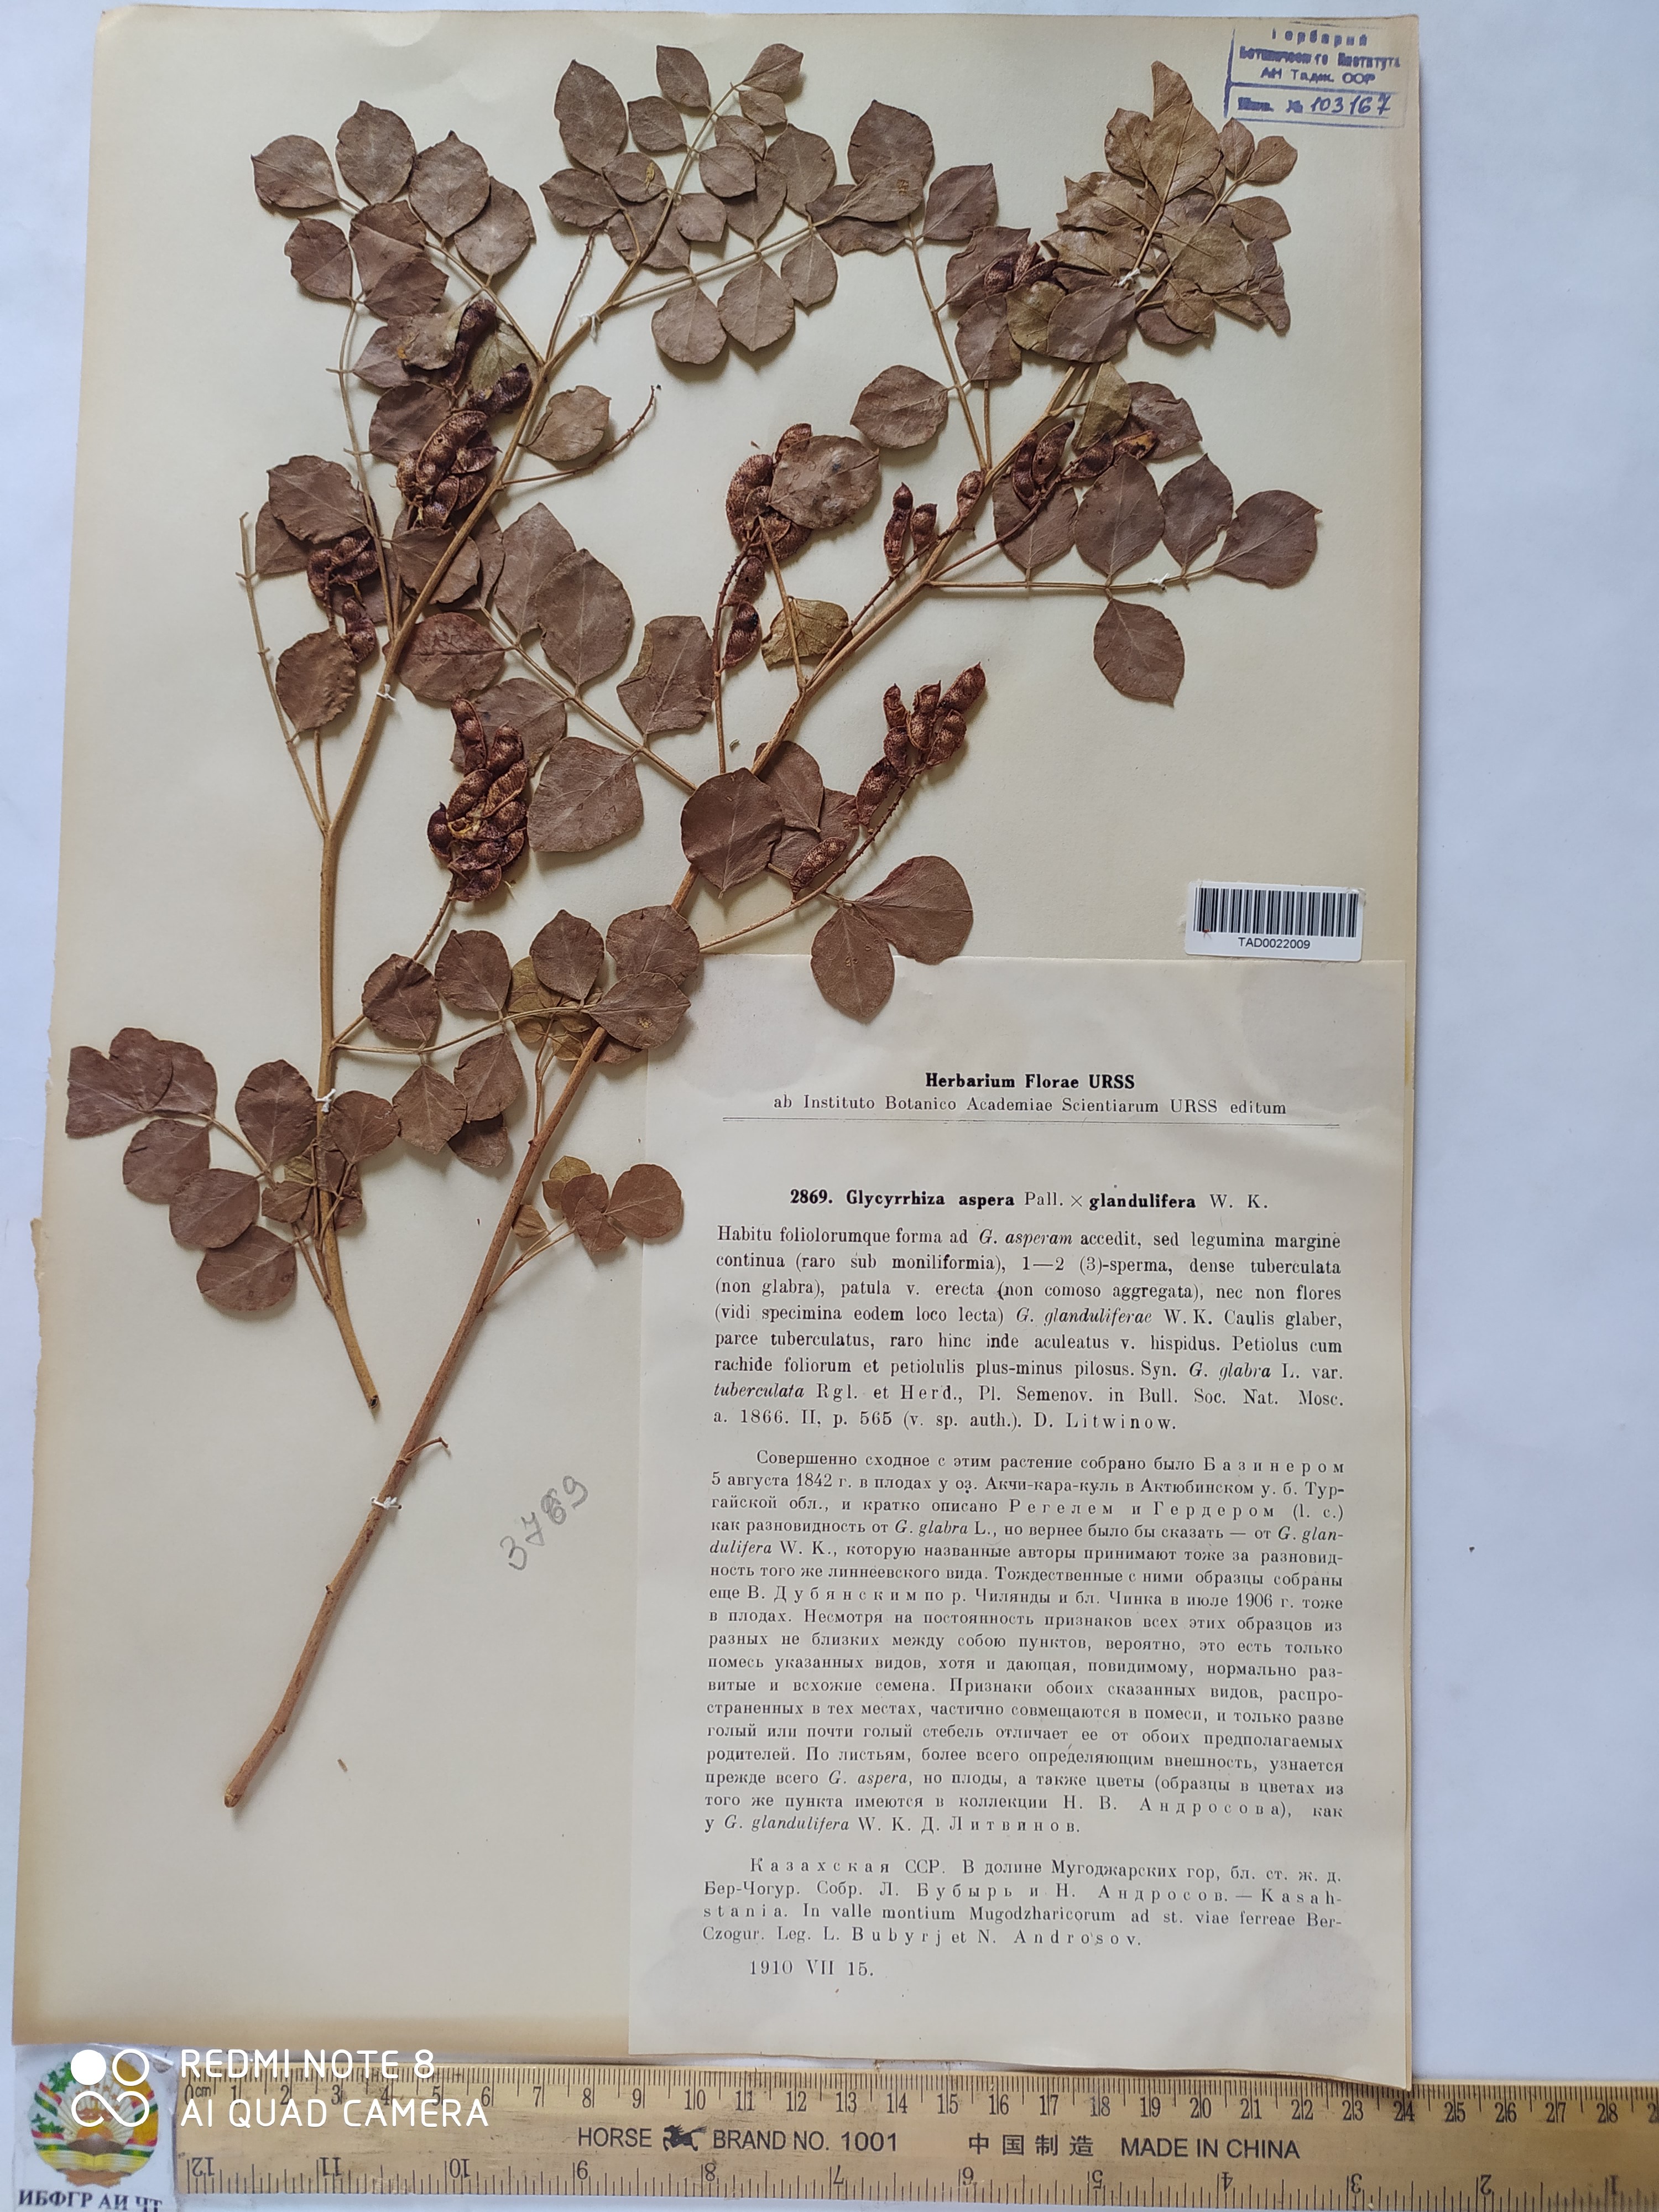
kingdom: Plantae
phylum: Tracheophyta
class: Magnoliopsida
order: Fabales
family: Fabaceae
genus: Glycyrrhiza
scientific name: Glycyrrhiza aspera
